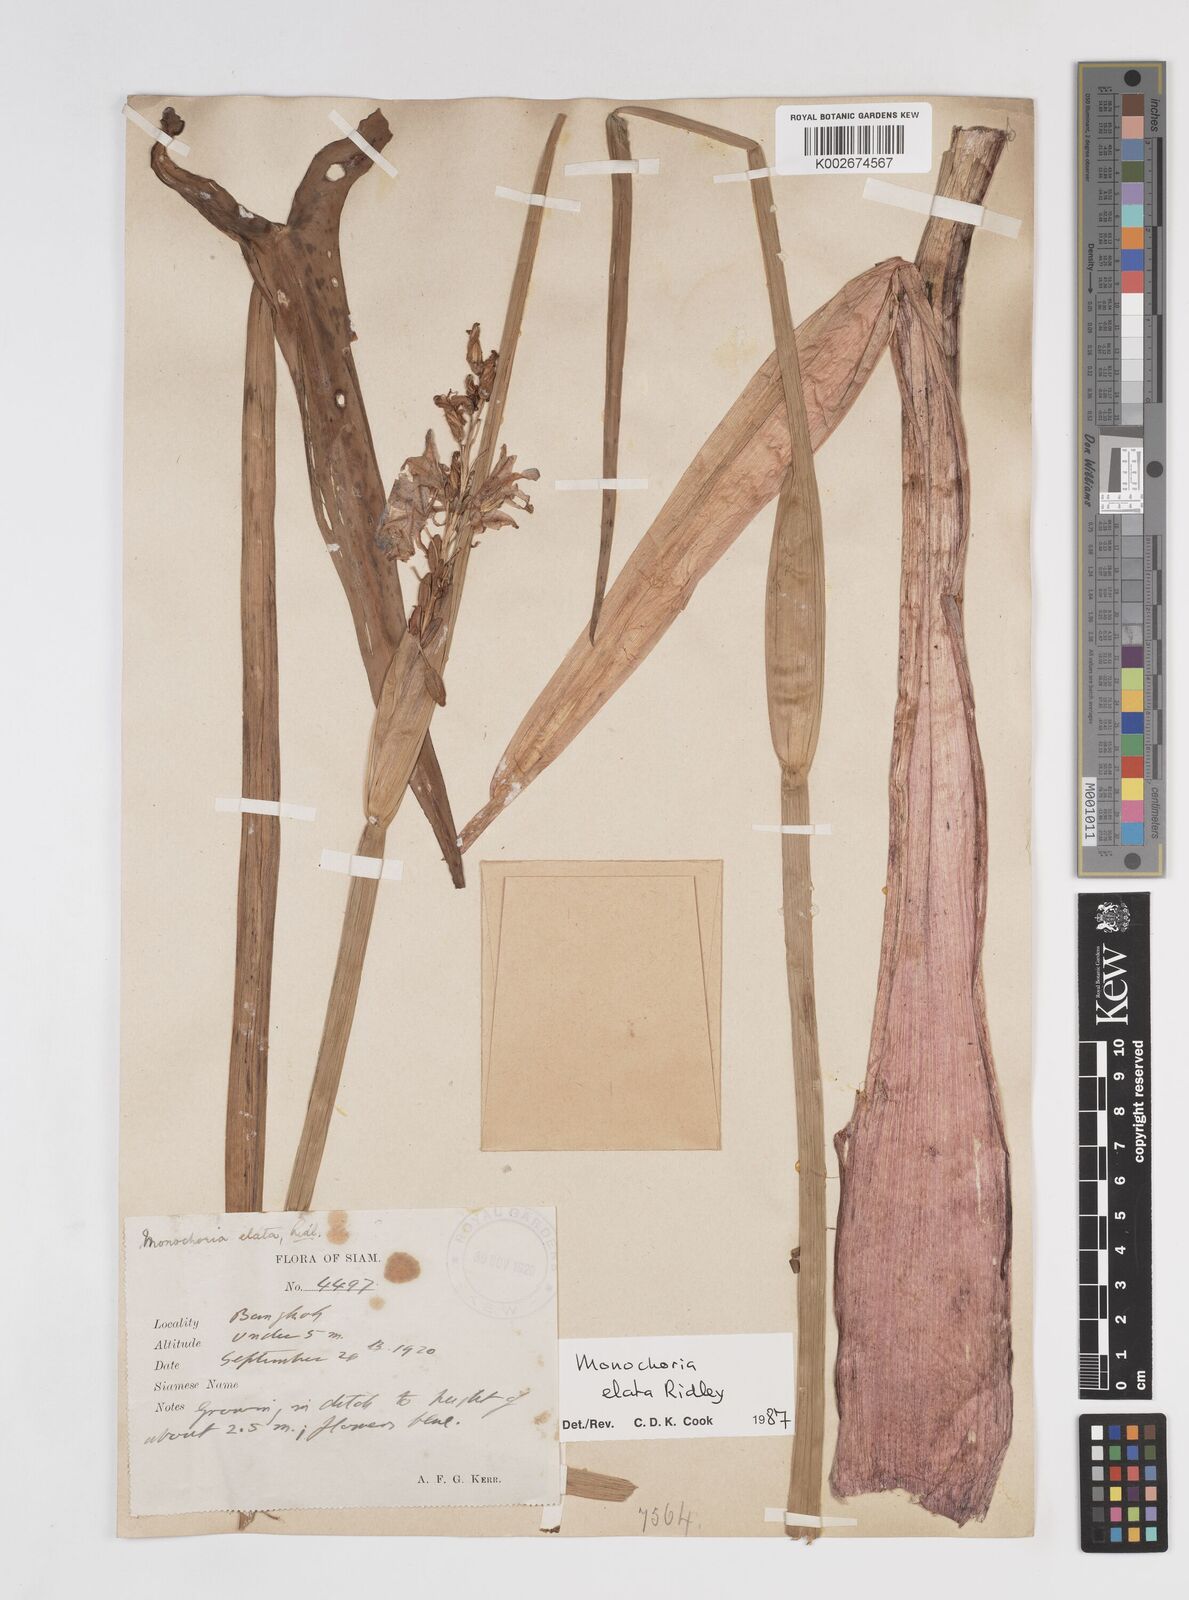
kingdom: Plantae
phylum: Tracheophyta
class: Liliopsida
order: Commelinales
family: Pontederiaceae
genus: Pontederia
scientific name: Pontederia elata
